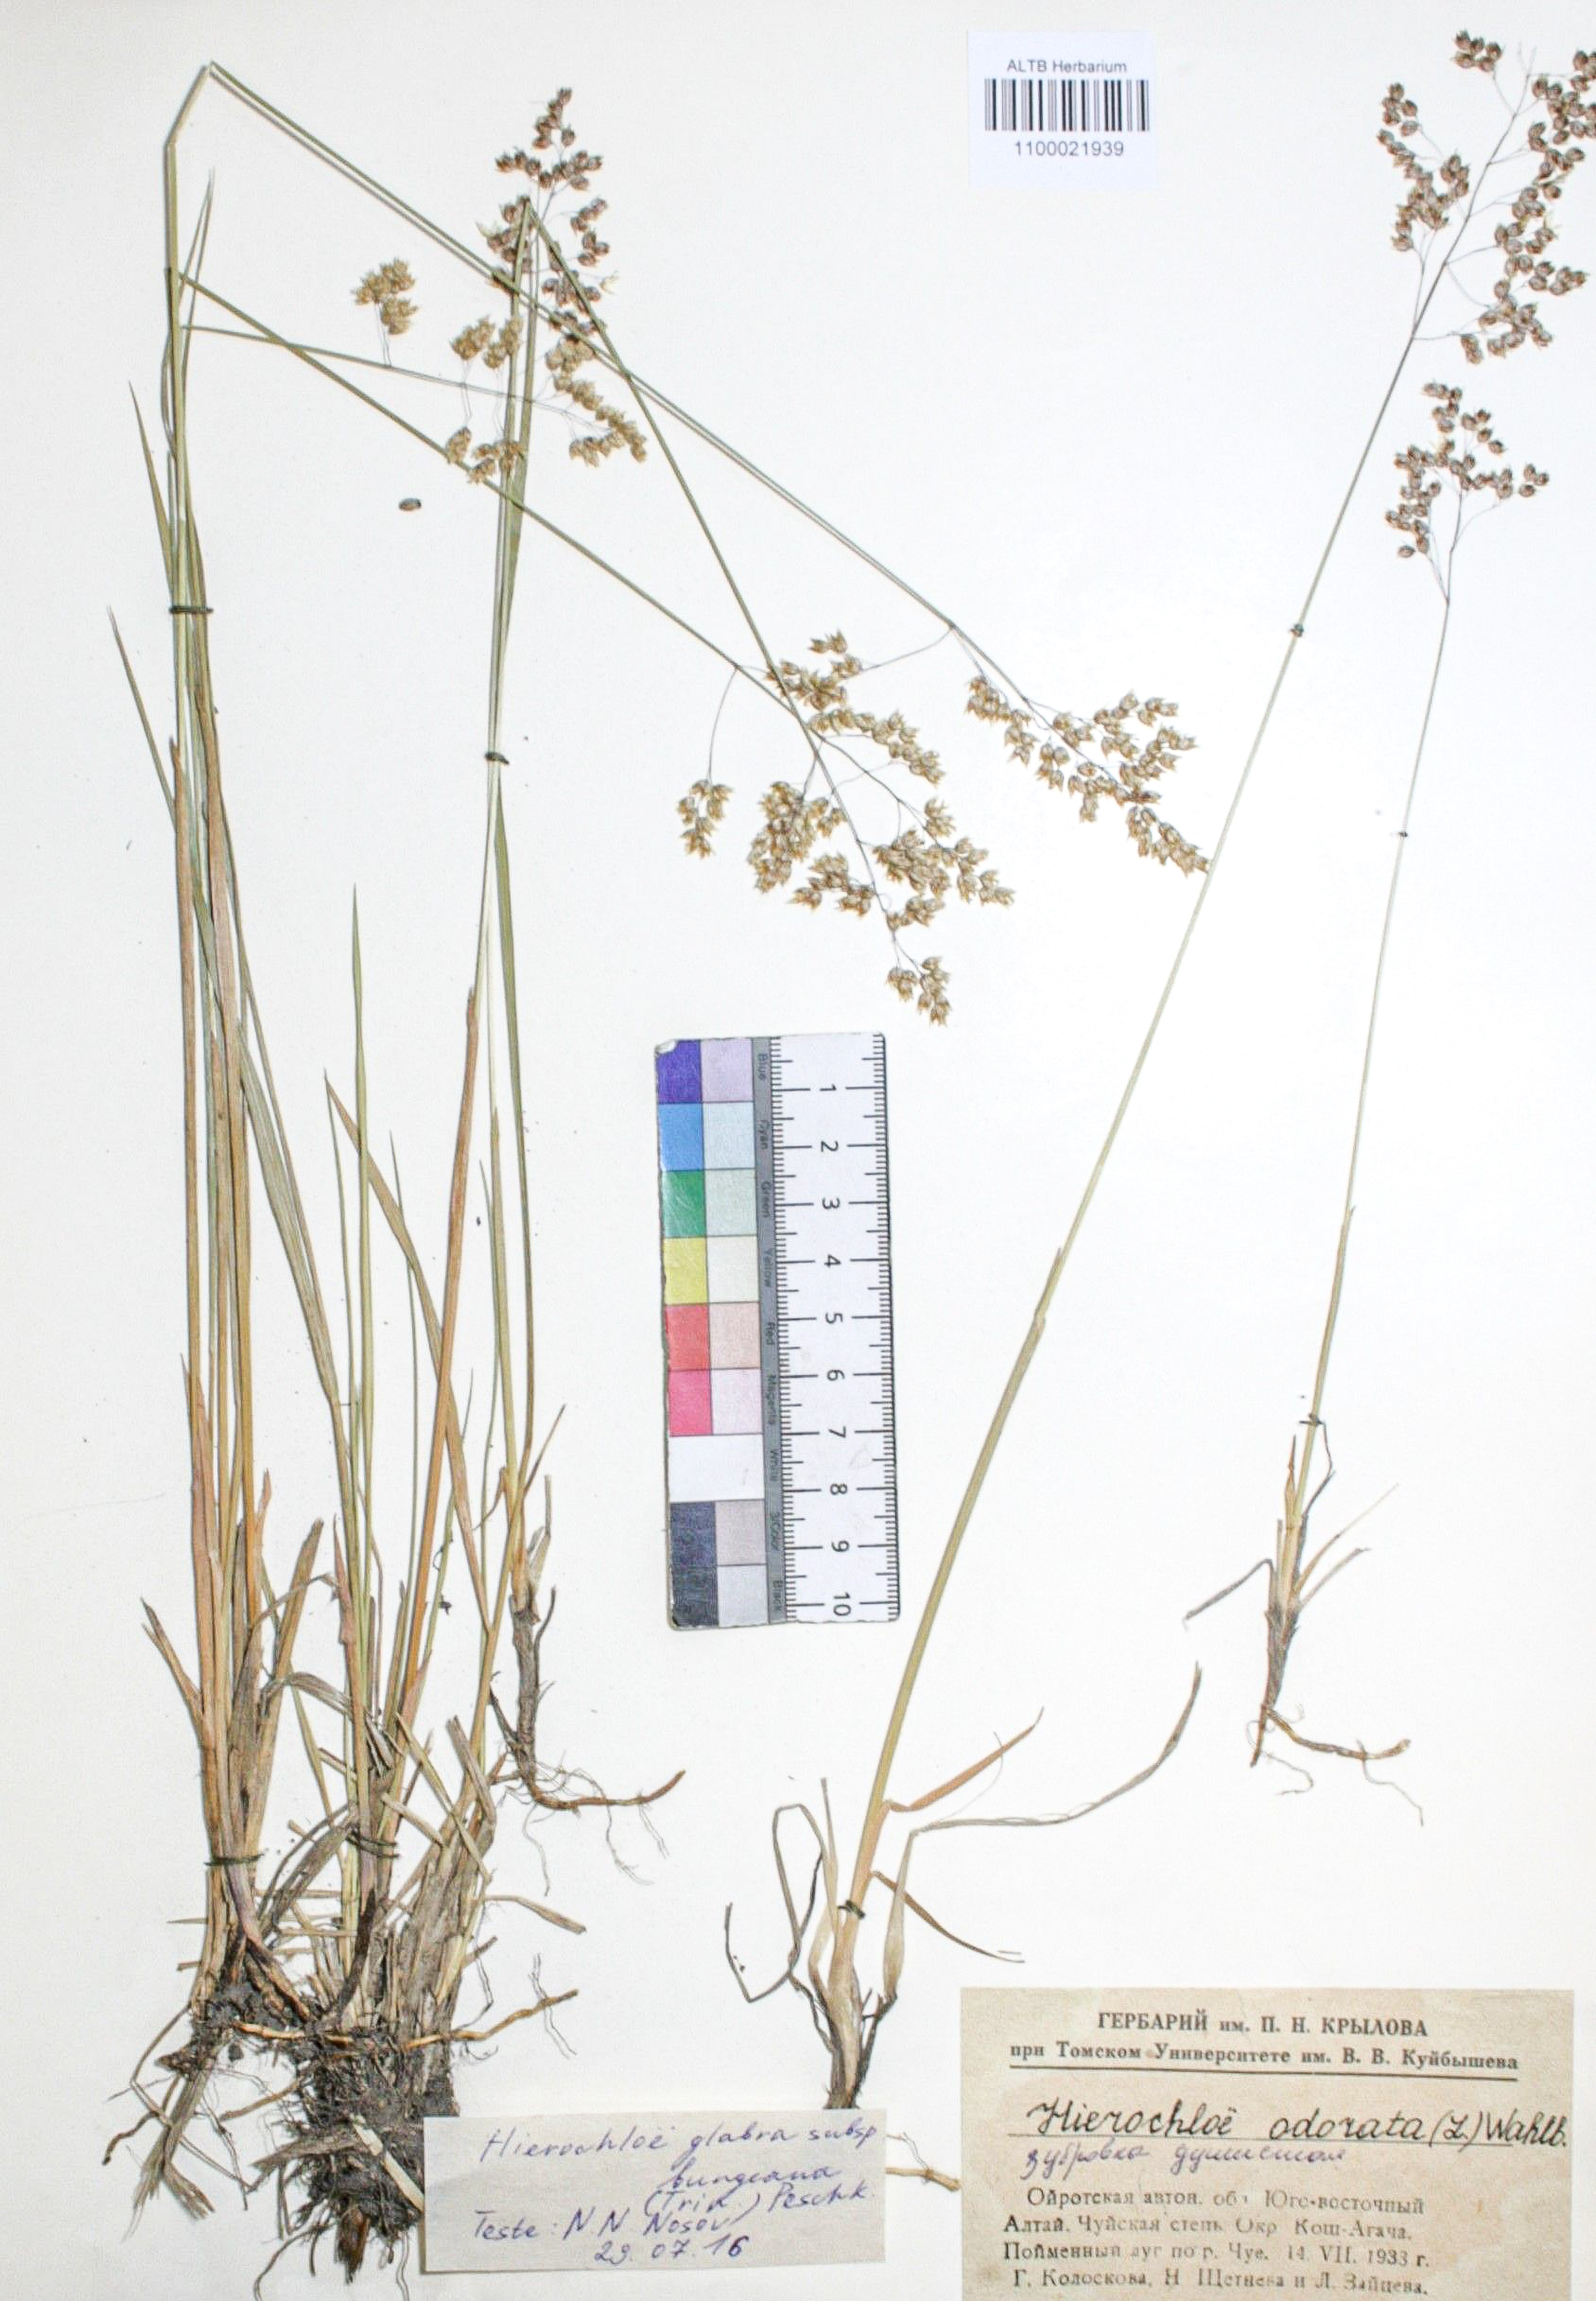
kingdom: Plantae
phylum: Tracheophyta
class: Liliopsida
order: Poales
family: Poaceae
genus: Anthoxanthum
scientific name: Anthoxanthum nitens
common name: Holy grass
